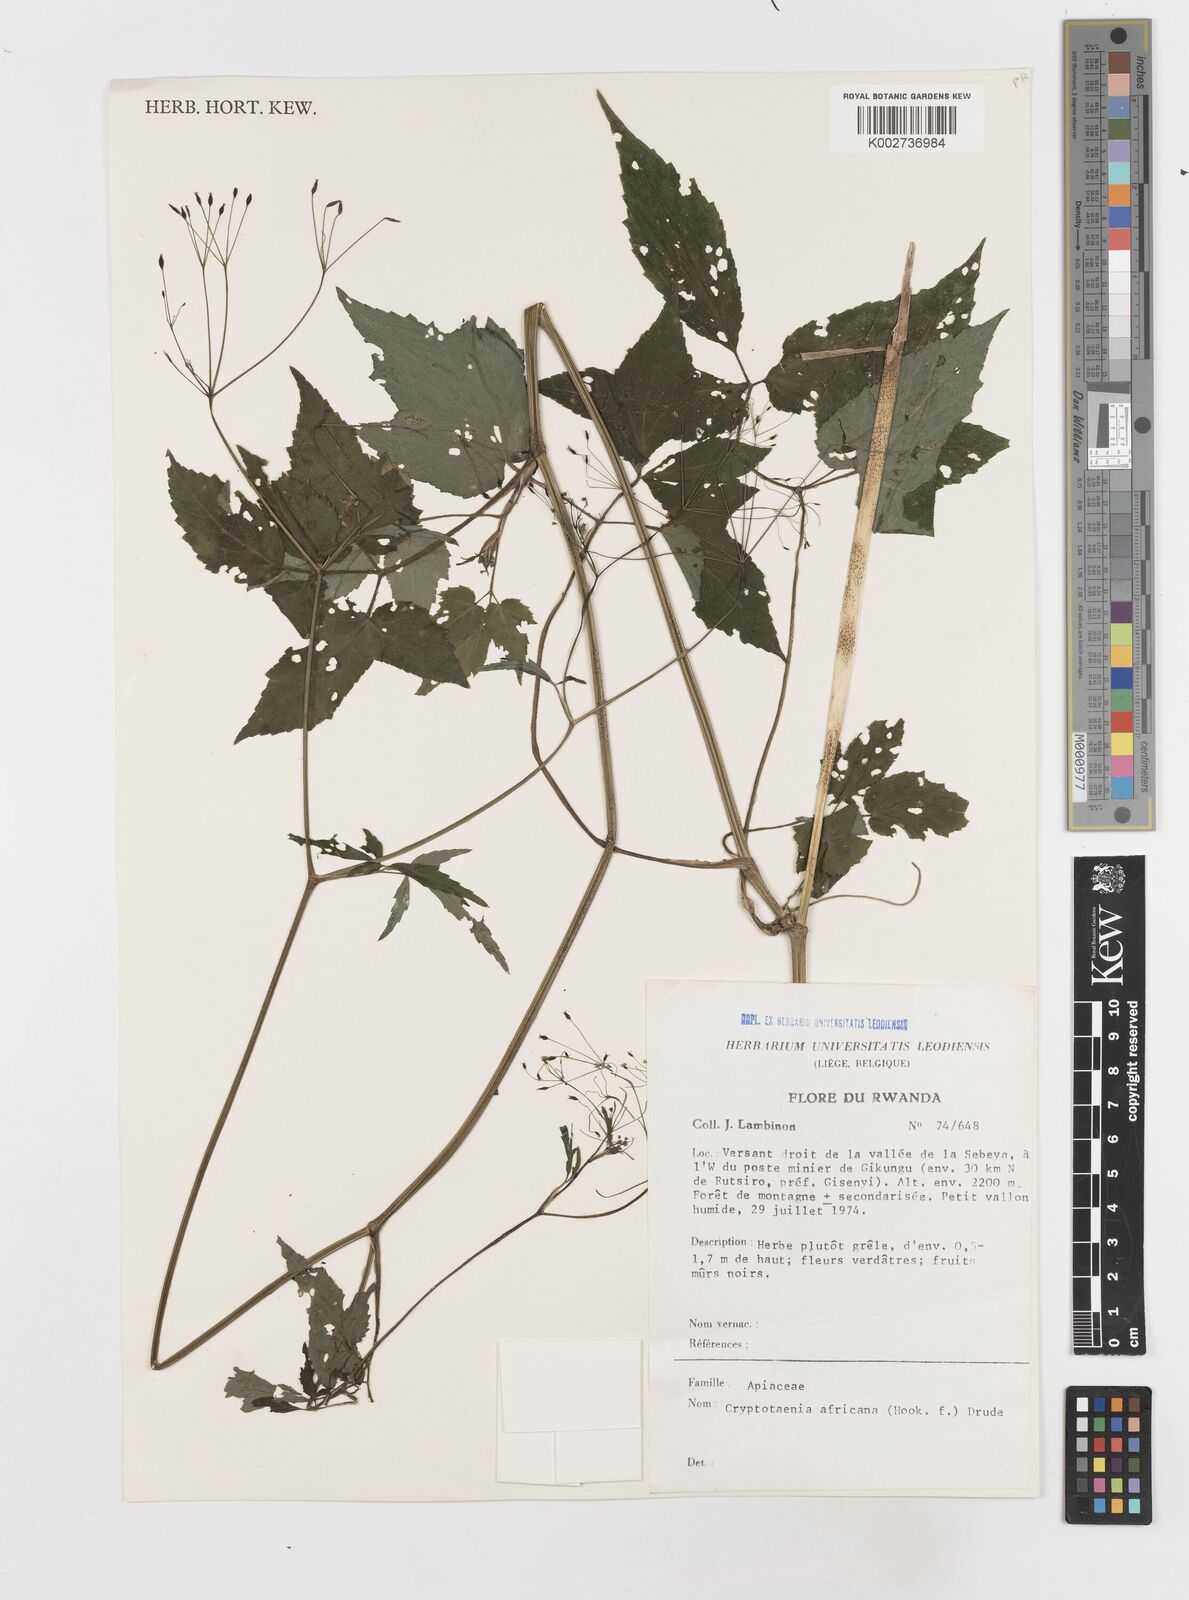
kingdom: Plantae
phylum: Tracheophyta
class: Magnoliopsida
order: Apiales
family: Apiaceae
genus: Cryptotaenia
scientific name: Cryptotaenia africana
